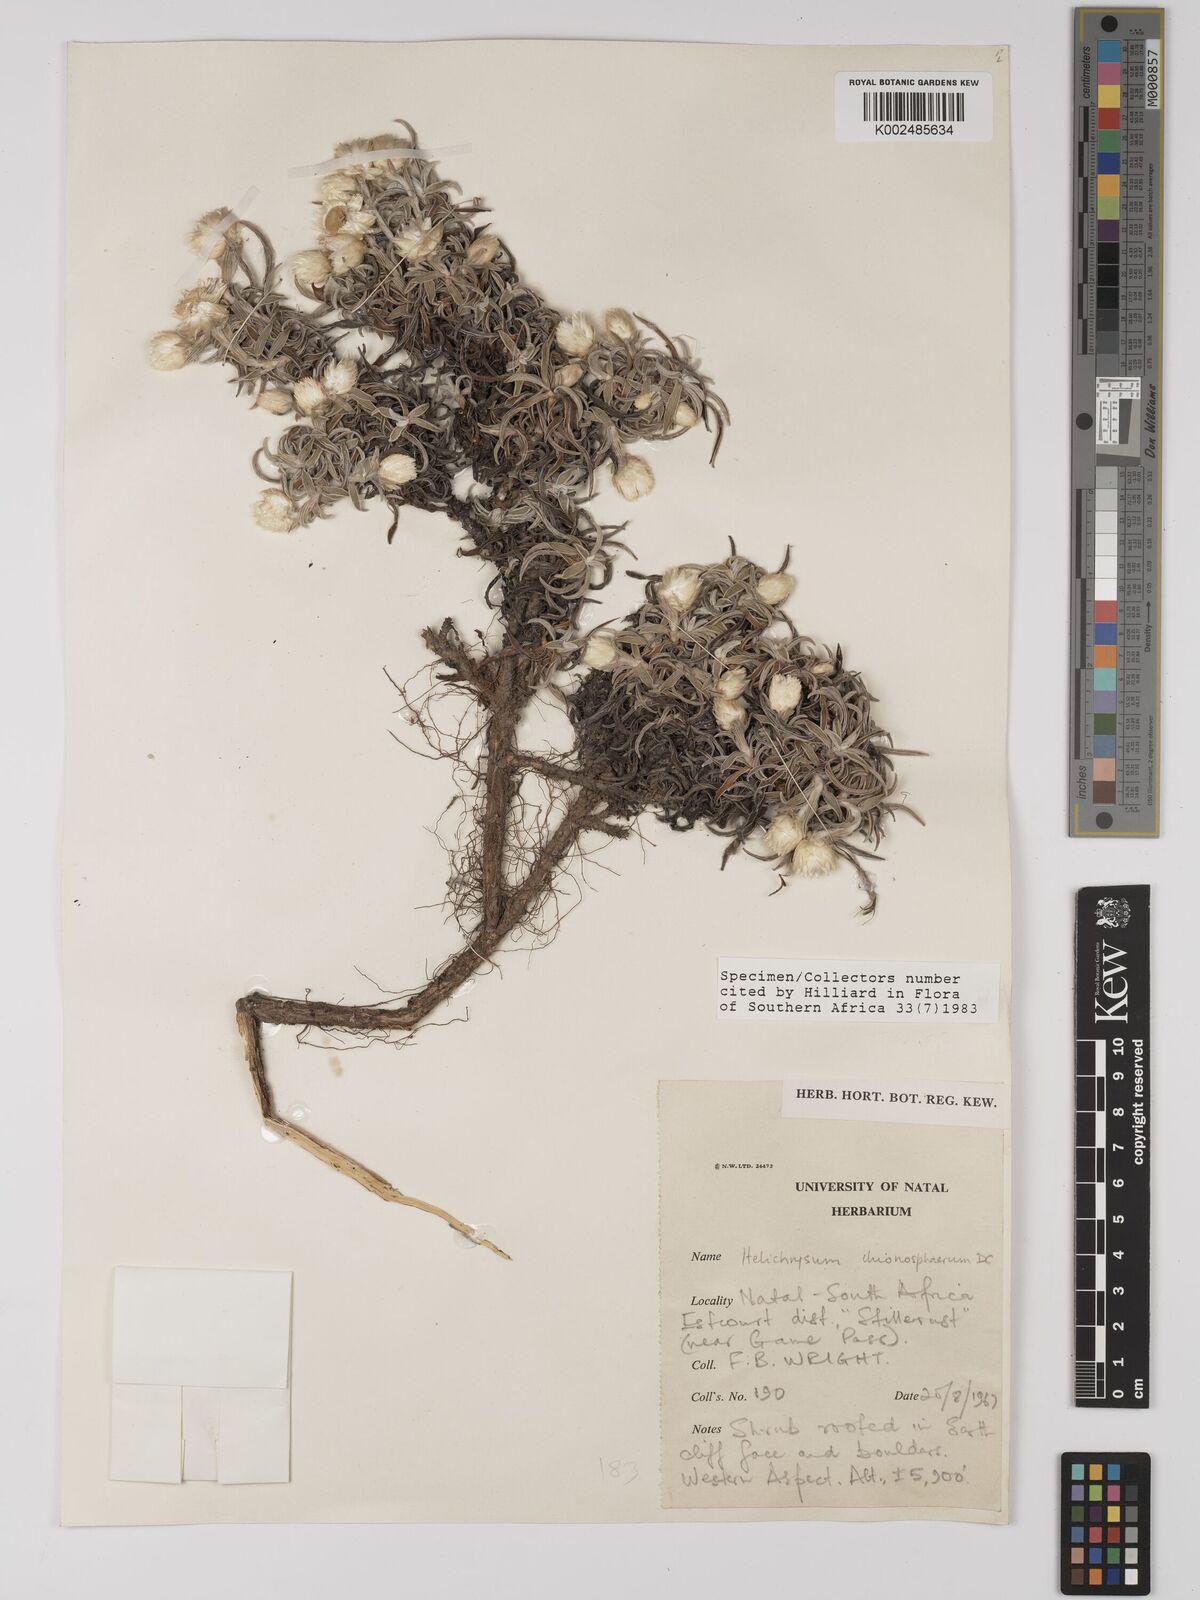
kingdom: Plantae
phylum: Tracheophyta
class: Magnoliopsida
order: Asterales
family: Asteraceae
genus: Helichrysum
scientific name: Helichrysum chionosphaerum
